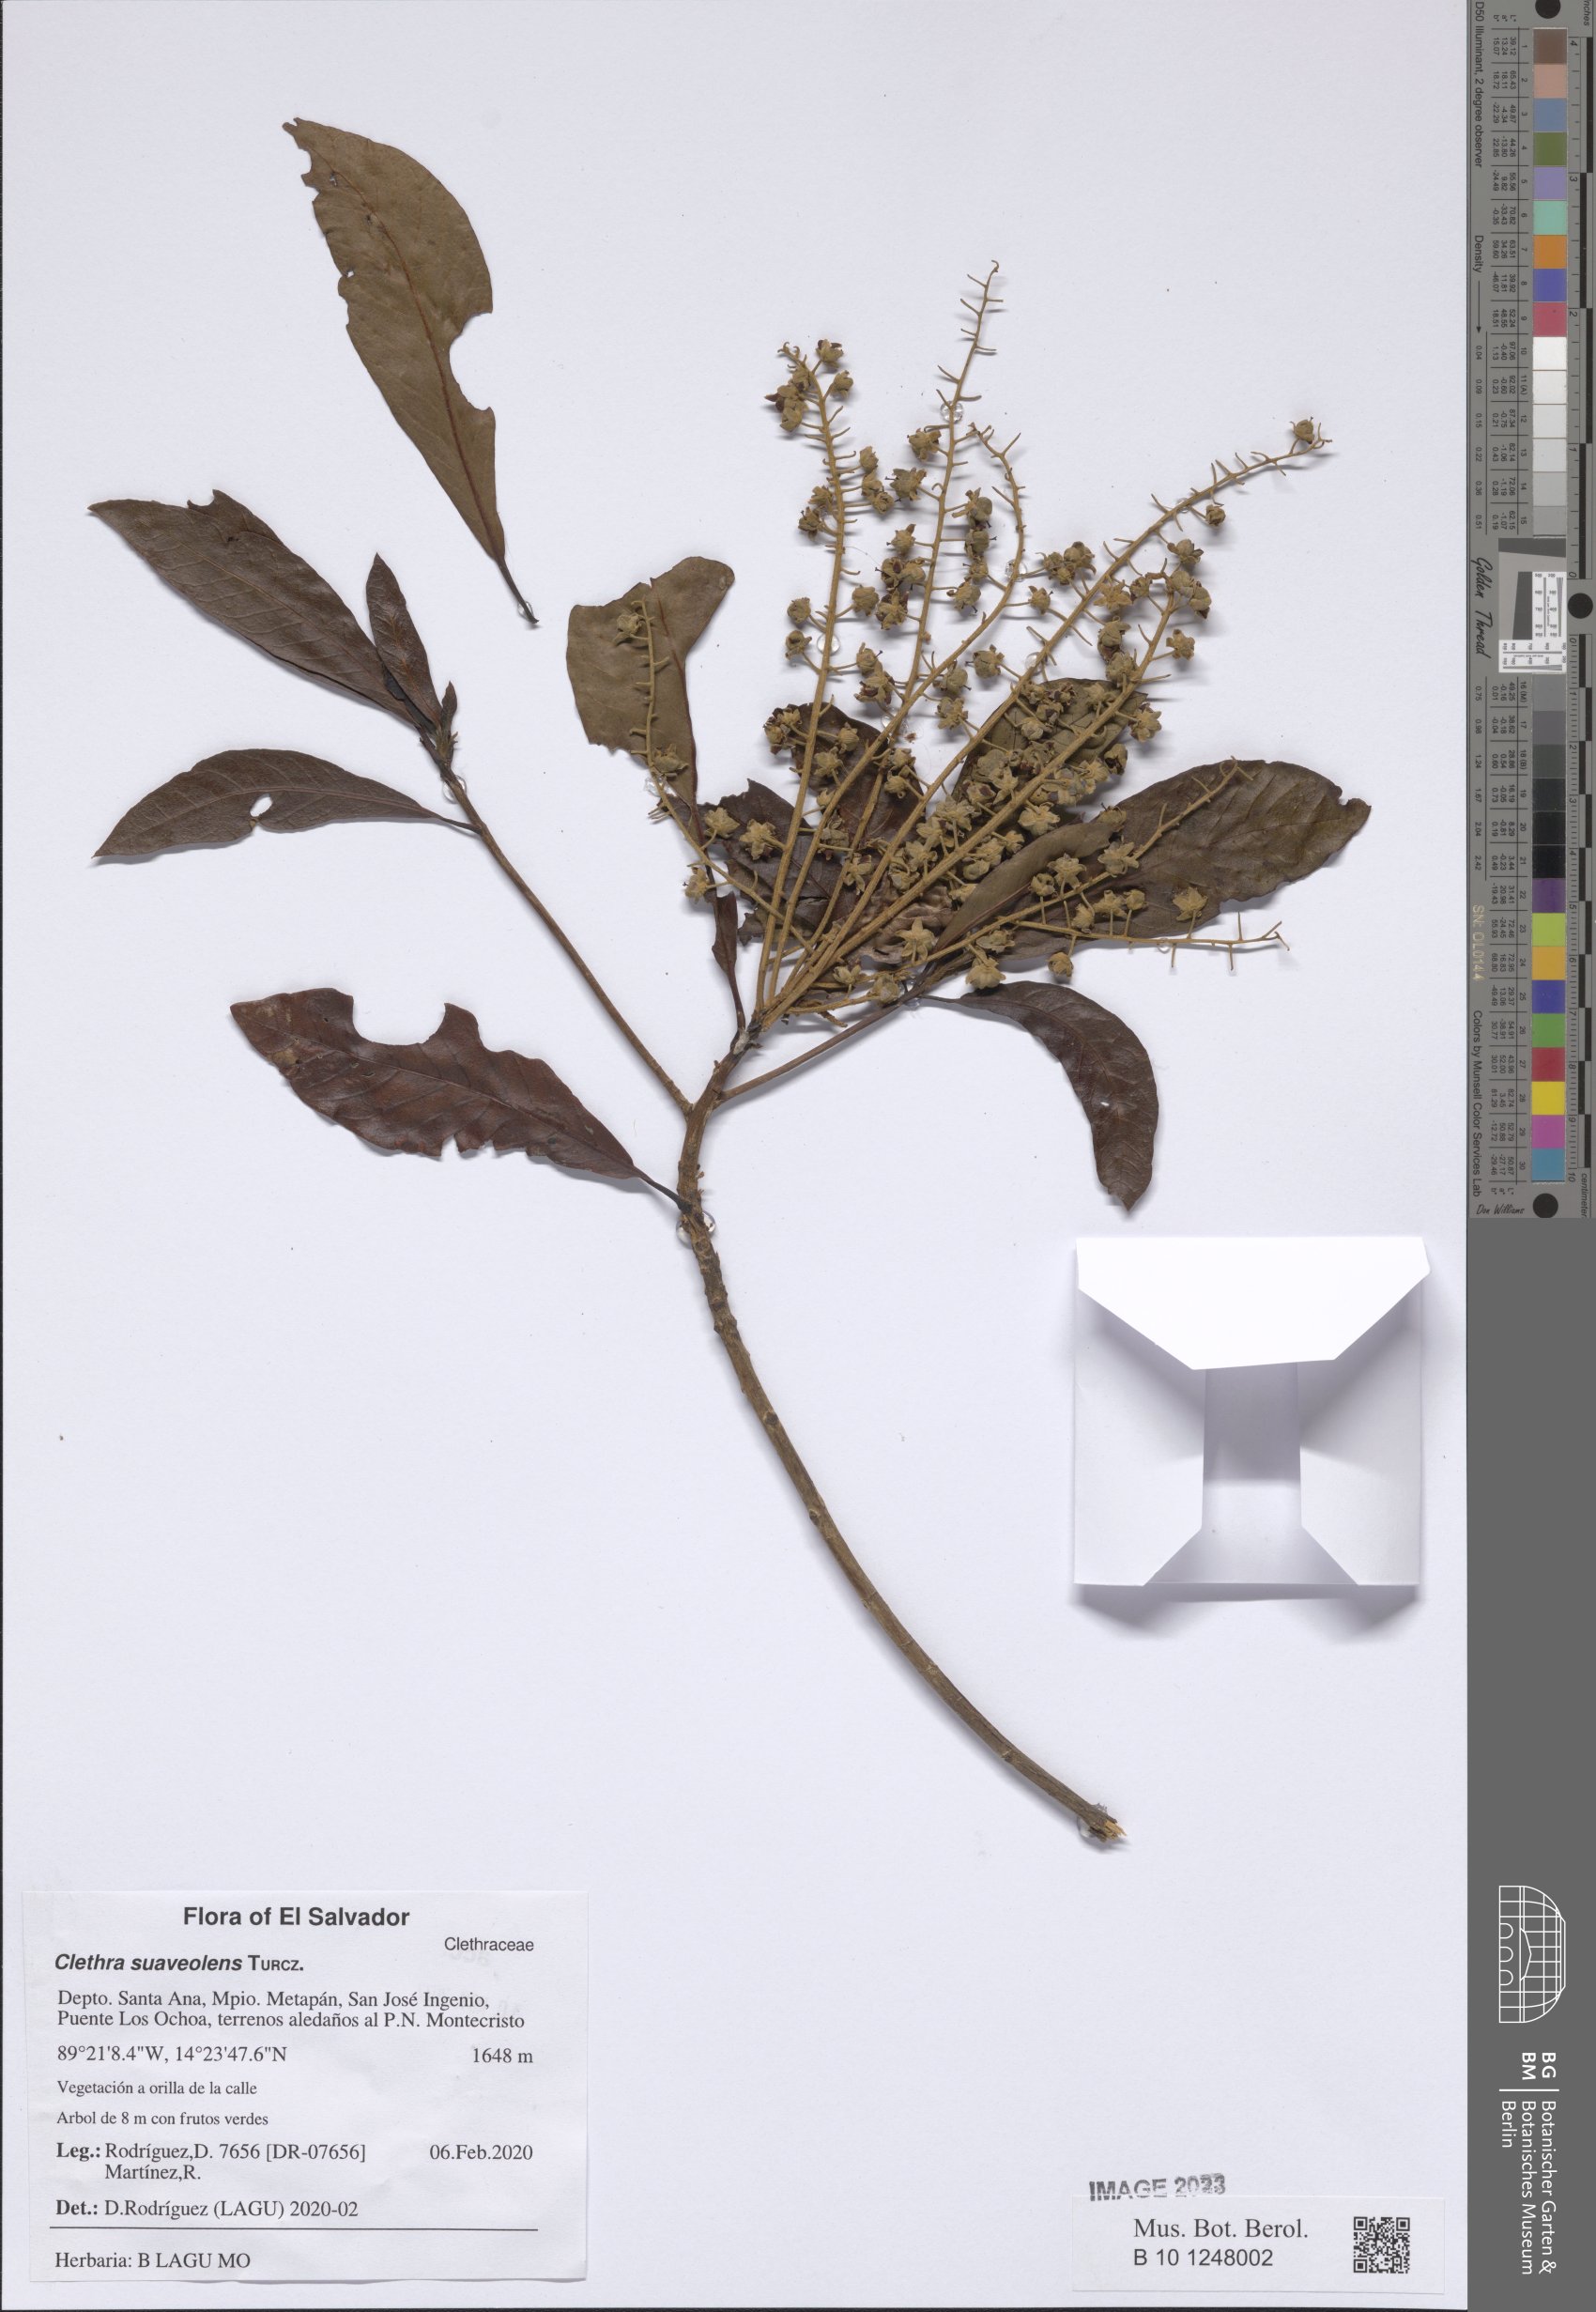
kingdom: Plantae
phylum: Tracheophyta
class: Magnoliopsida
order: Ericales
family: Clethraceae
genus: Clethra
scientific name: Clethra suaveolens
